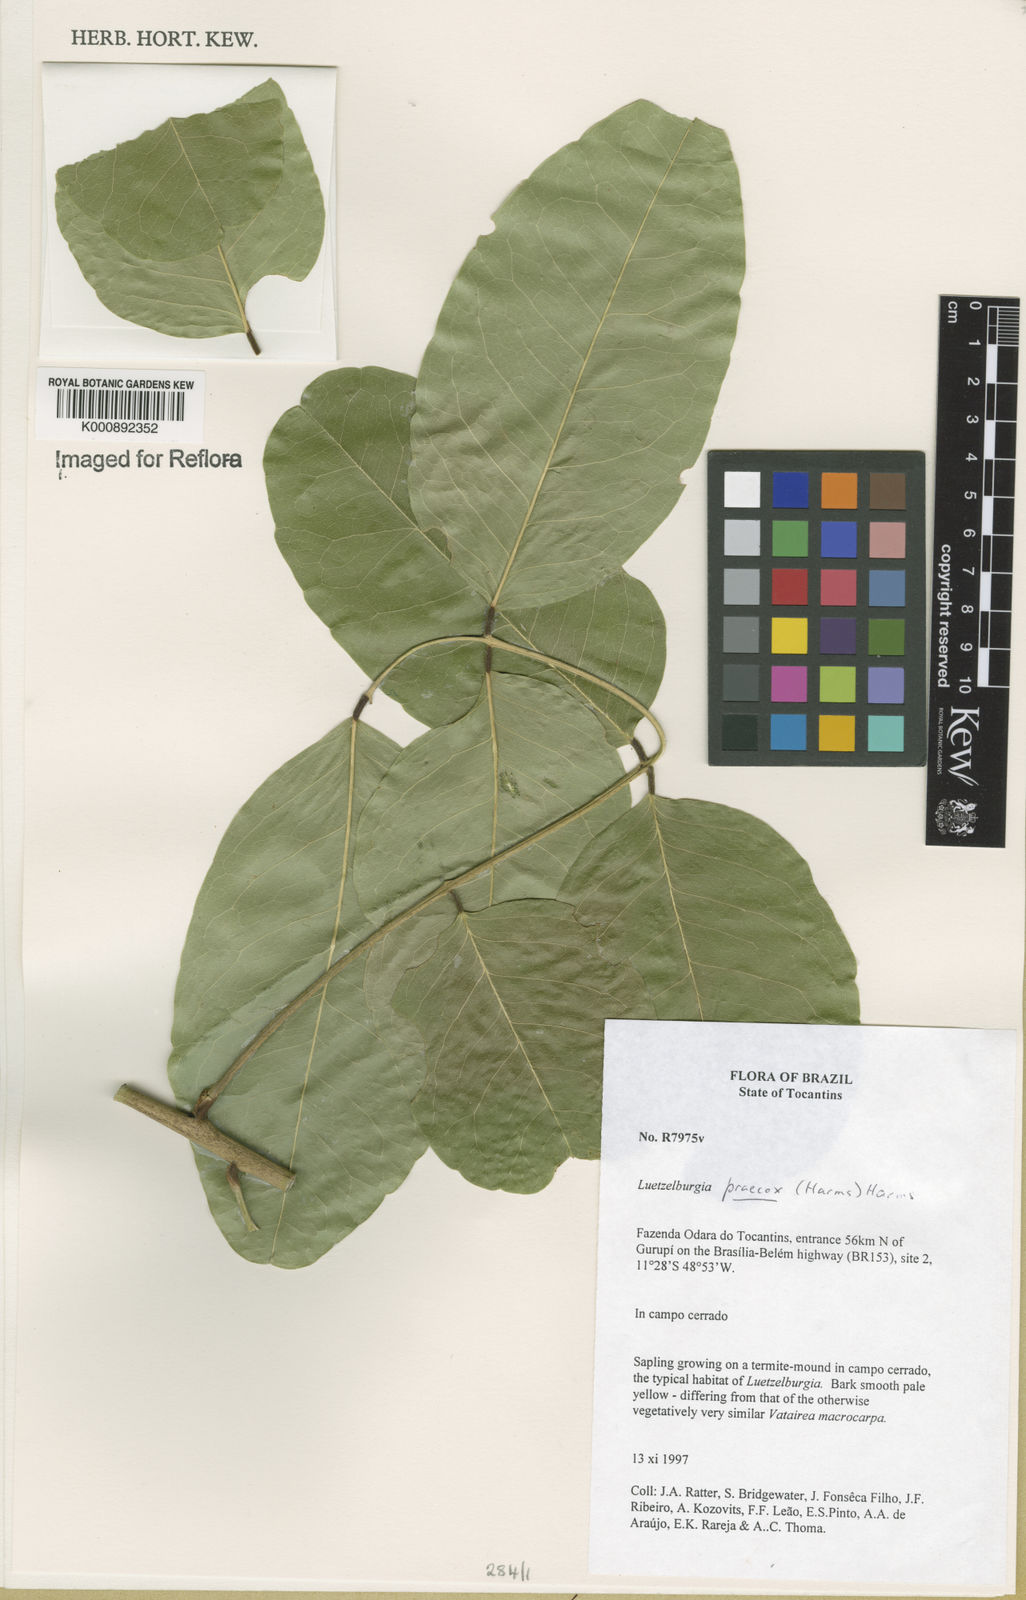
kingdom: Plantae
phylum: Tracheophyta
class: Magnoliopsida
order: Fabales
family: Fabaceae
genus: Luetzelburgia
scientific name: Luetzelburgia praecox
